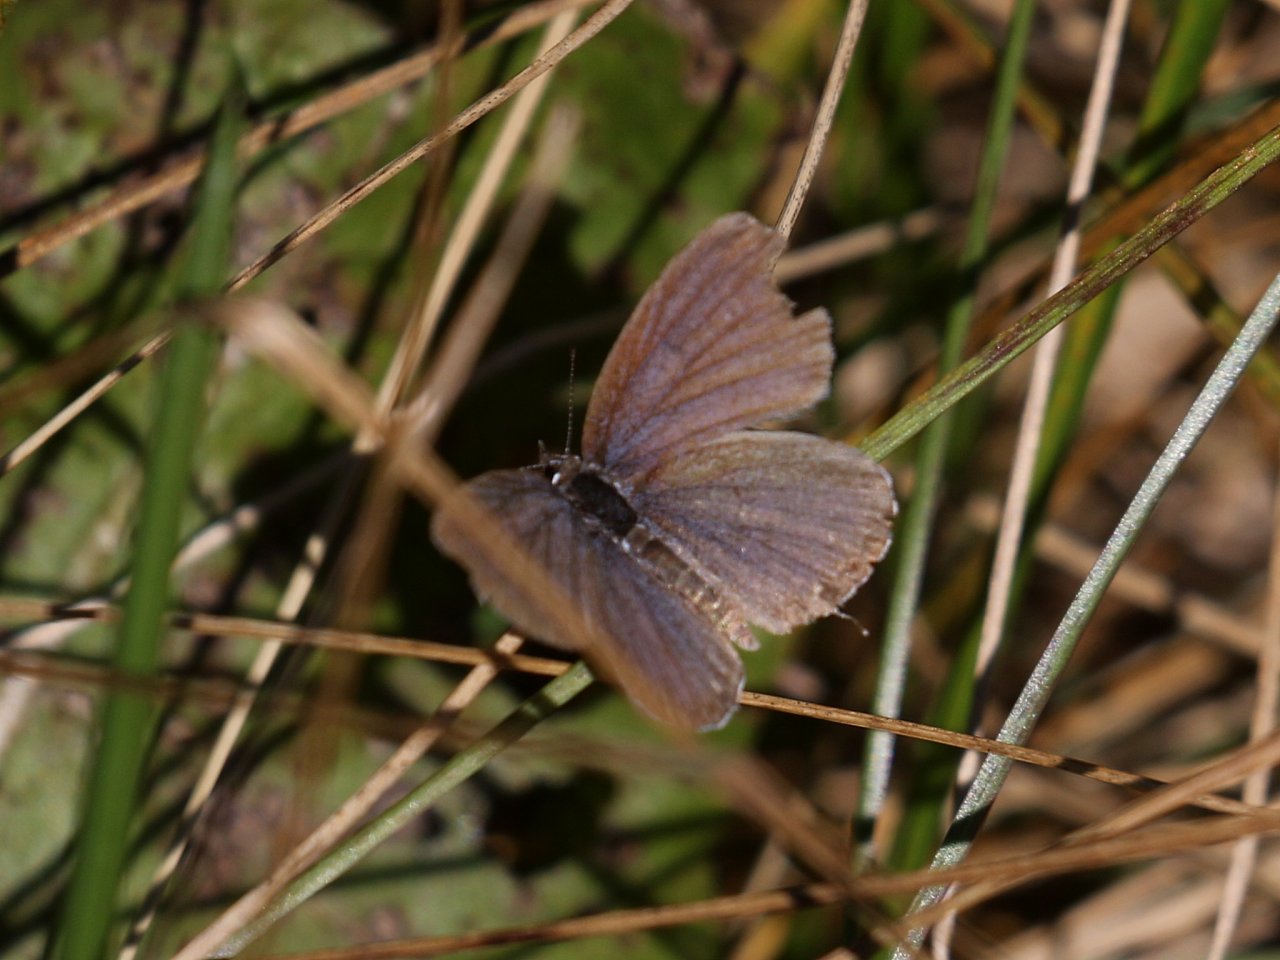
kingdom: Animalia
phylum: Arthropoda
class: Insecta
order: Lepidoptera
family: Lycaenidae
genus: Elkalyce
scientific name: Elkalyce comyntas
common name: Eastern Tailed-Blue
